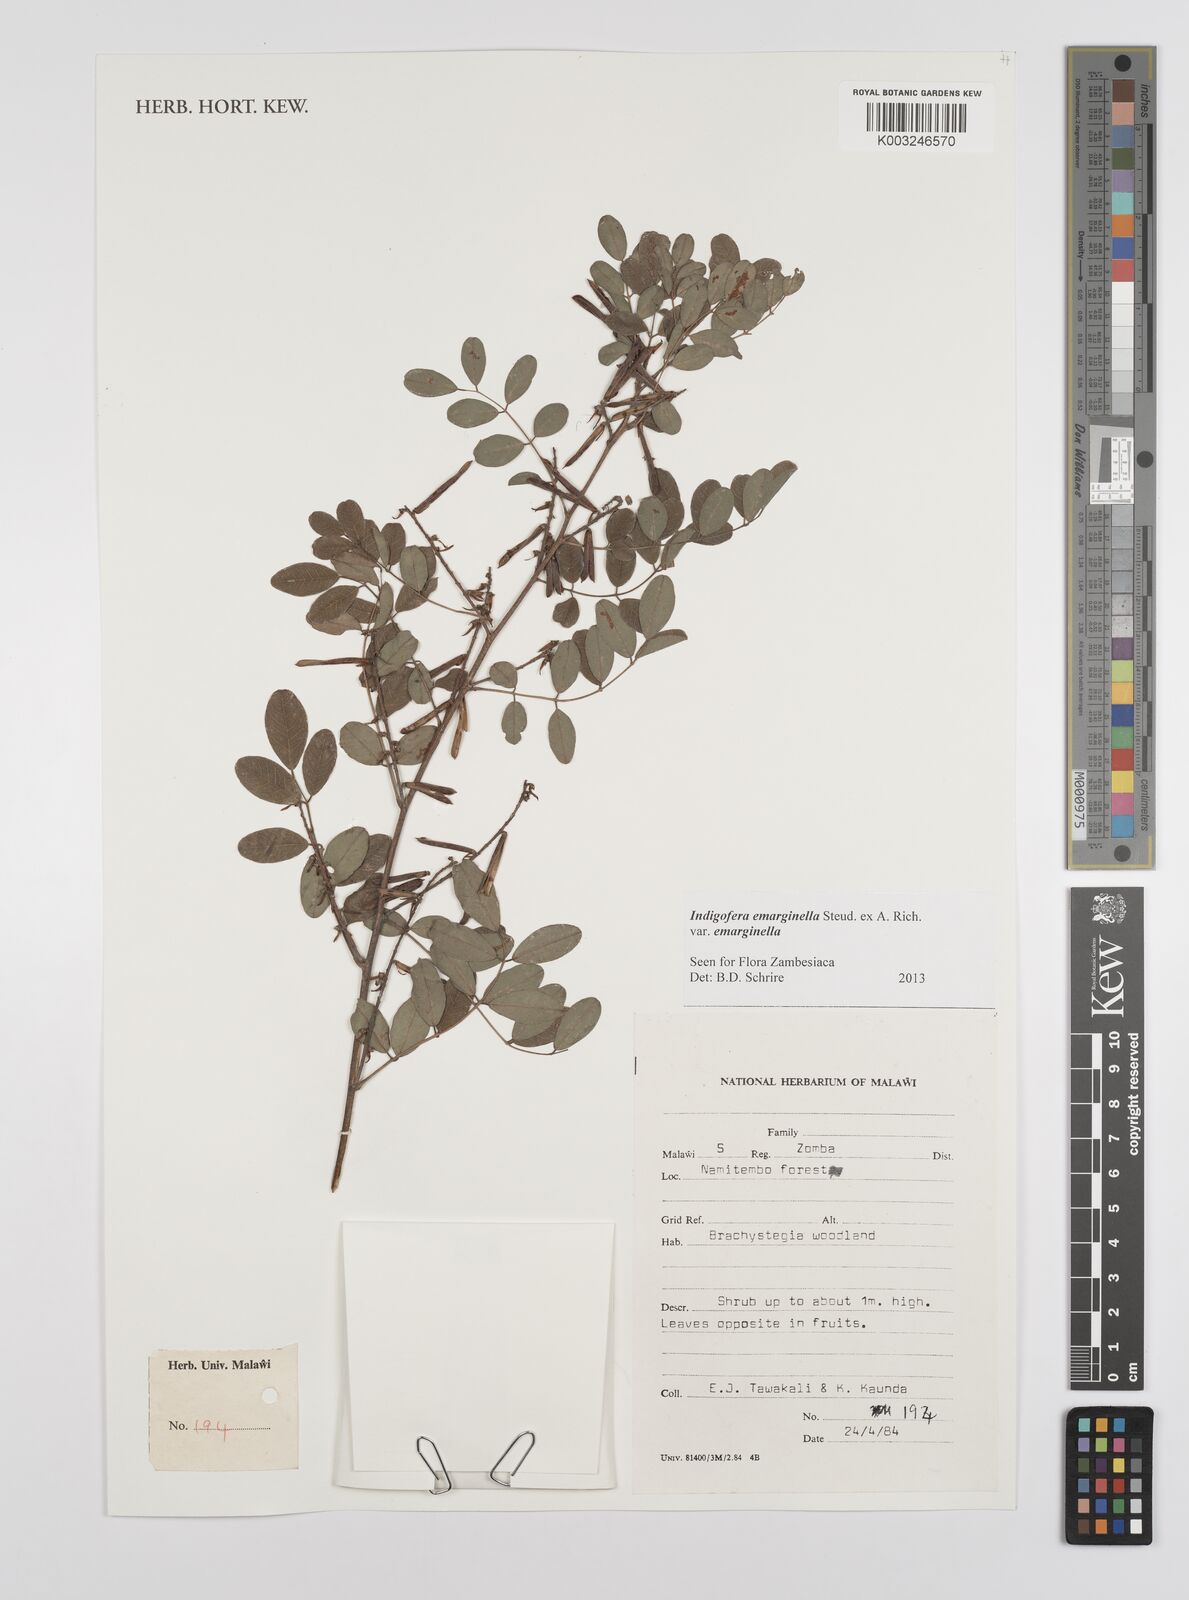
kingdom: Plantae
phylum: Tracheophyta
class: Magnoliopsida
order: Fabales
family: Fabaceae
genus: Indigofera
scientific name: Indigofera emarginella
